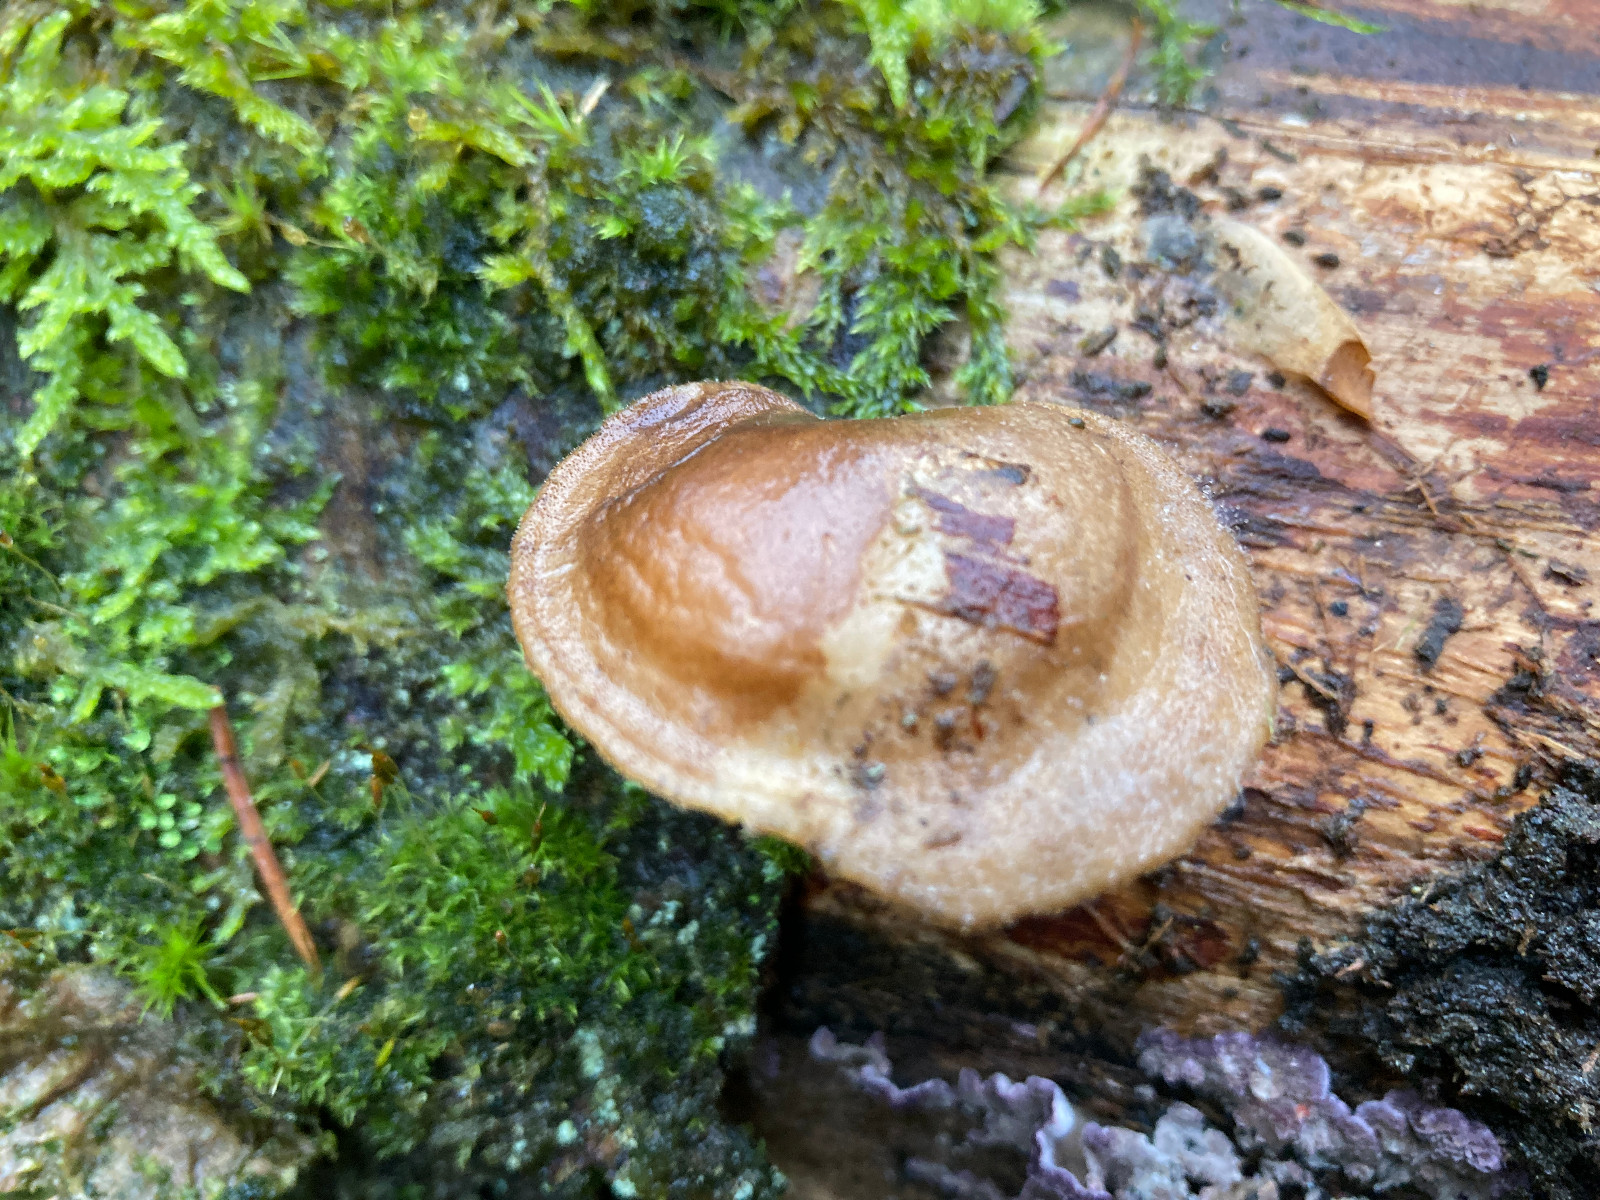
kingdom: Fungi
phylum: Basidiomycota
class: Agaricomycetes
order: Polyporales
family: Polyporaceae
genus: Lentinus
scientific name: Lentinus brumalis
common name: vinter-stilkporesvamp
